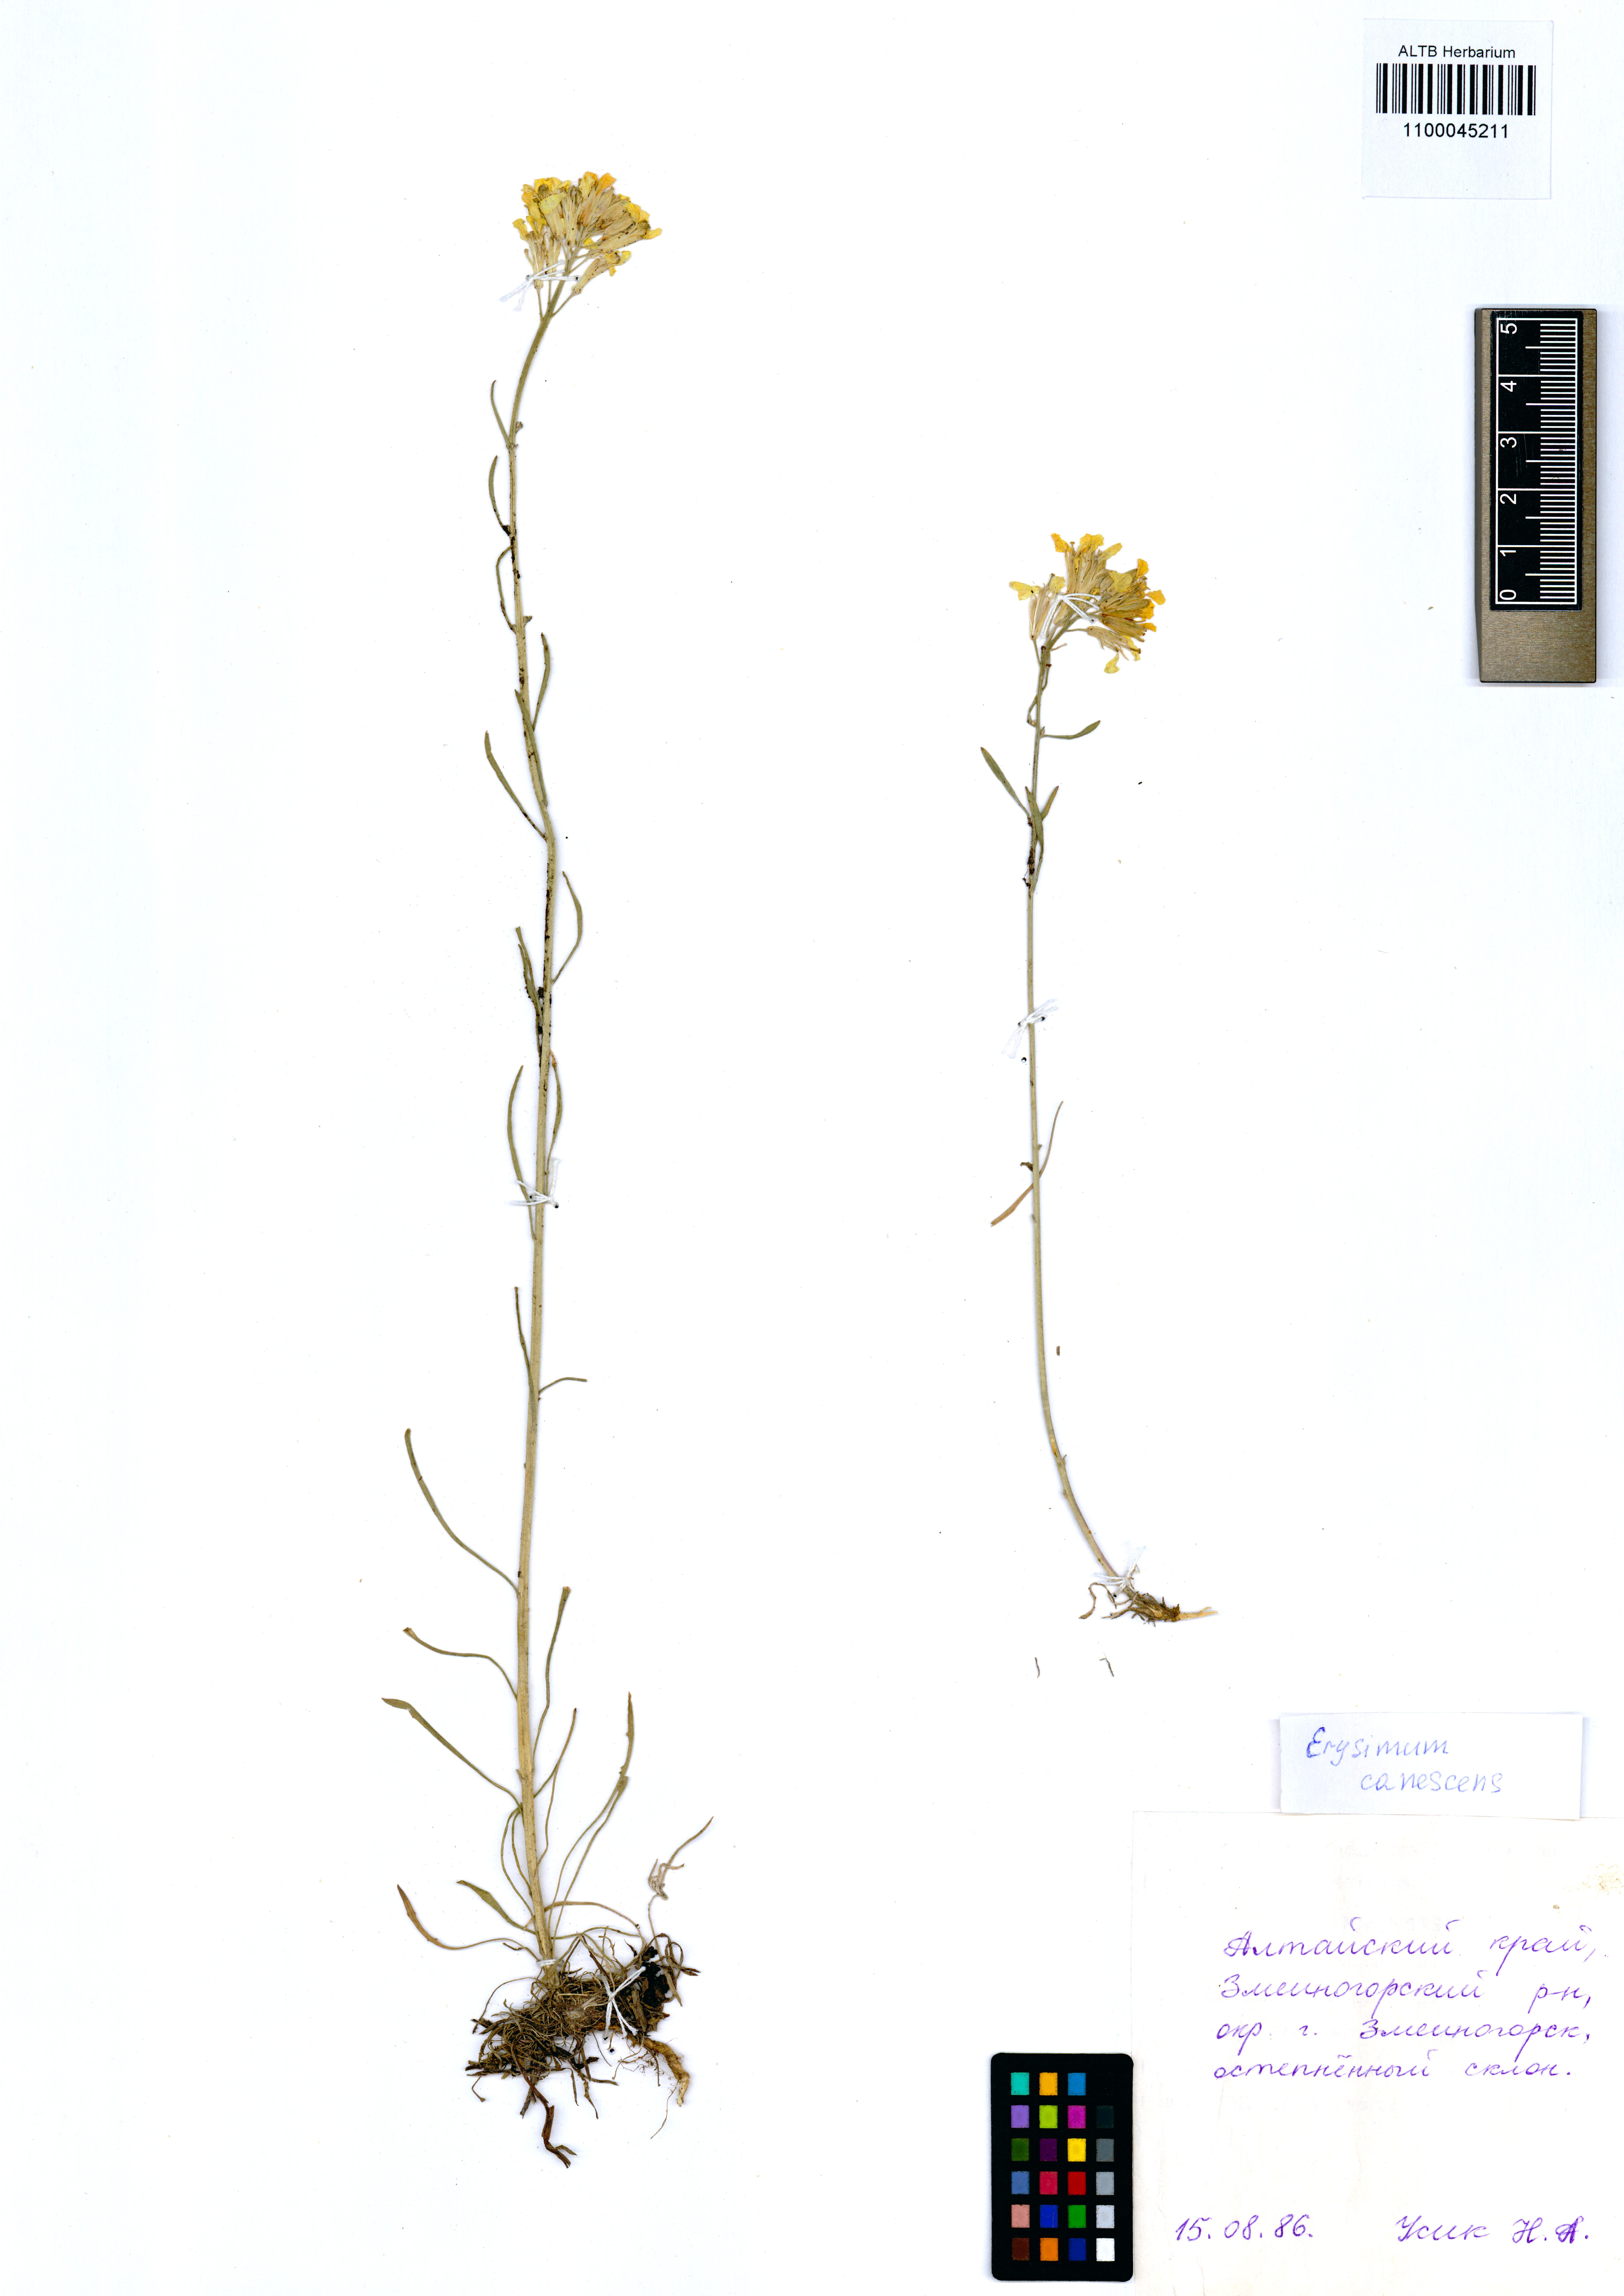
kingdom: Plantae
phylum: Tracheophyta
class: Magnoliopsida
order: Brassicales
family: Brassicaceae
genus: Erysimum
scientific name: Erysimum canescens
